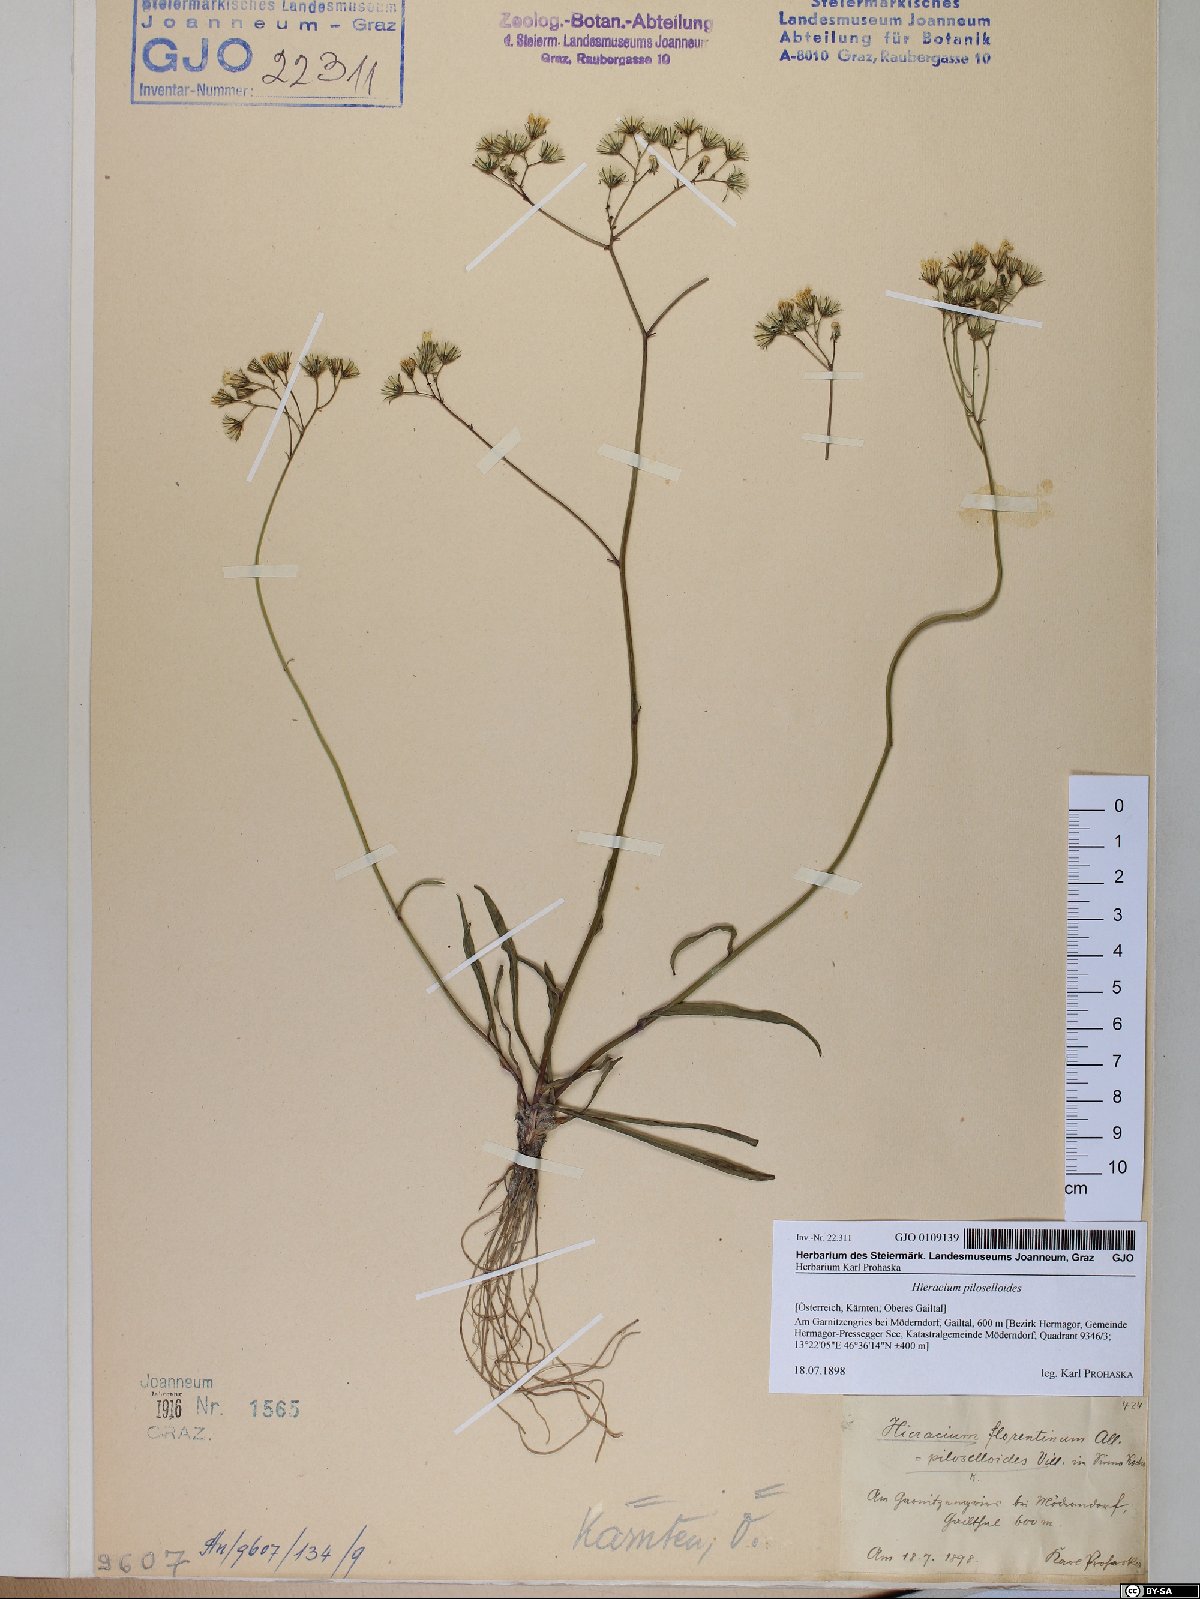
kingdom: Plantae
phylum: Tracheophyta
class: Magnoliopsida
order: Asterales
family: Asteraceae
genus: Pilosella
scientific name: Pilosella piloselloides
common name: Glaucous king-devil
